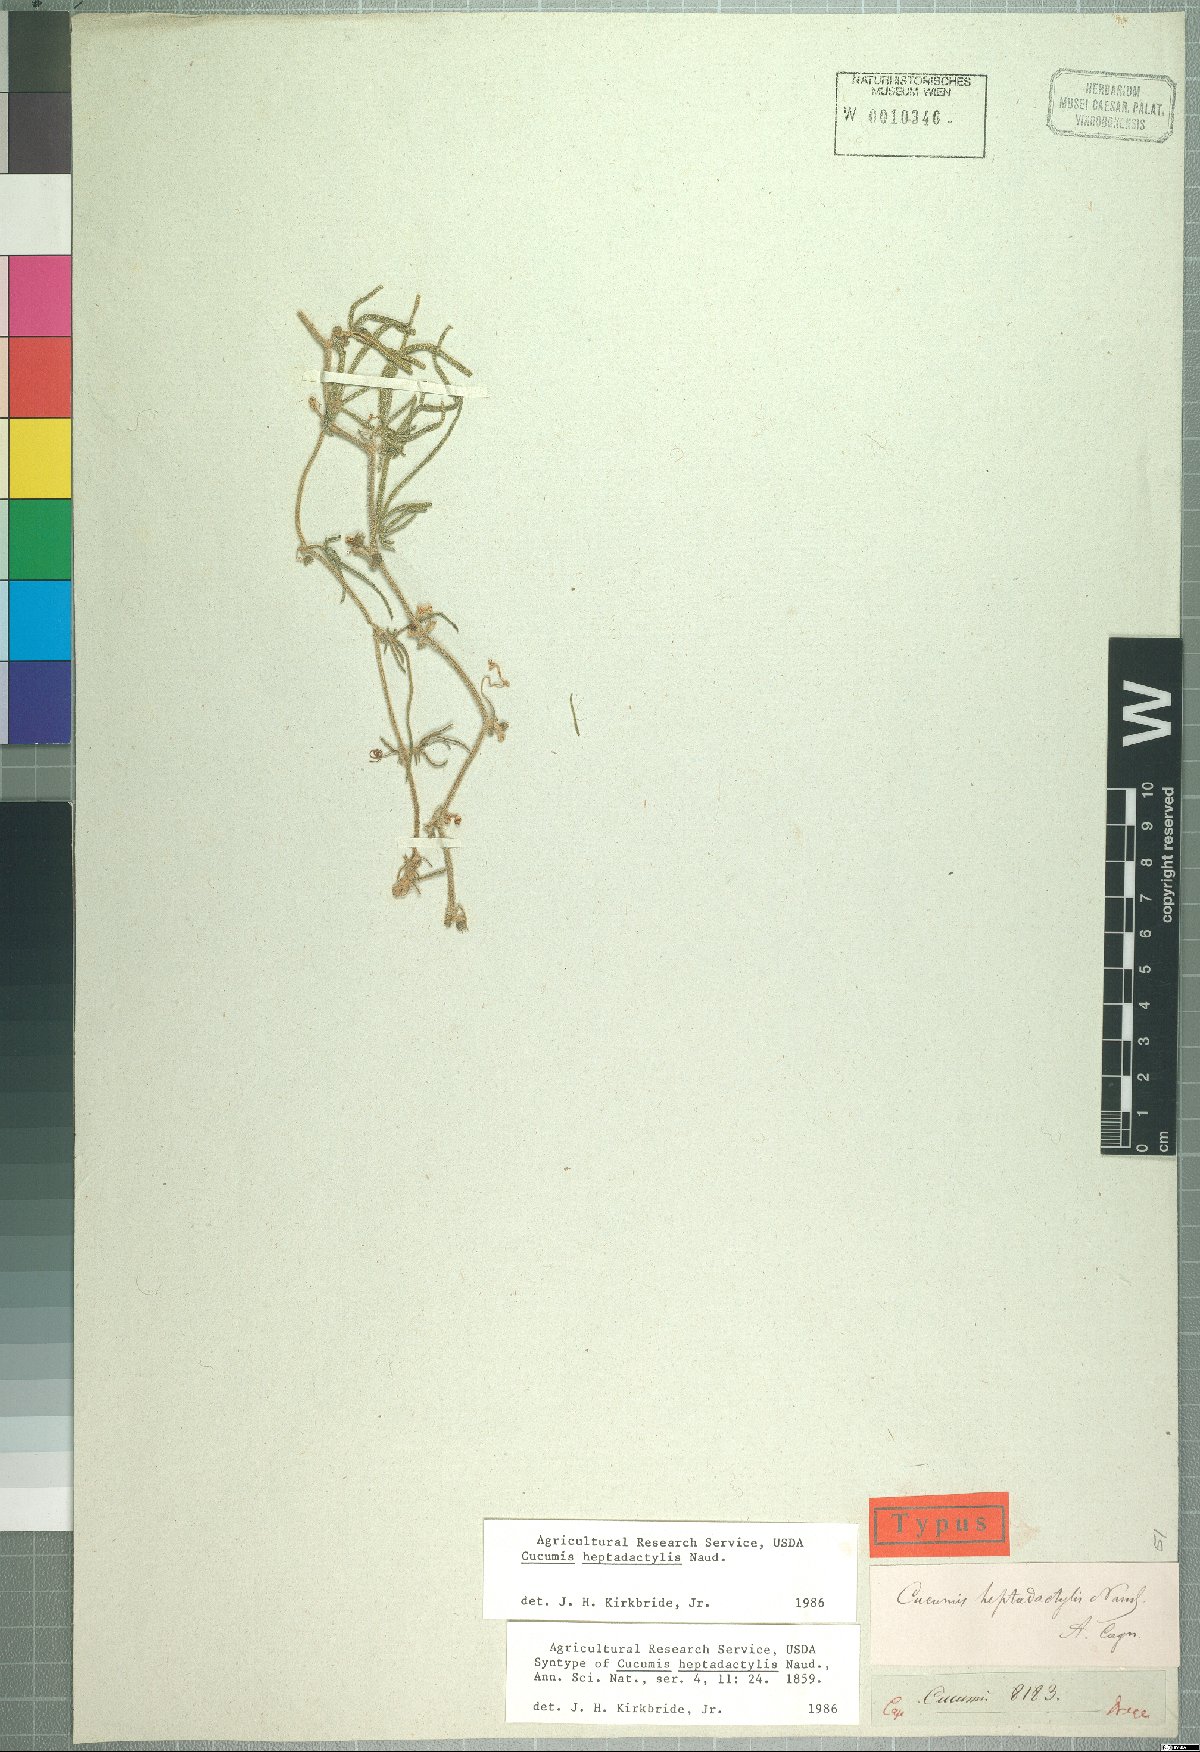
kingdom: Plantae
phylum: Tracheophyta
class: Magnoliopsida
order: Cucurbitales
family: Cucurbitaceae
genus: Cucumis
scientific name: Cucumis heptadactylus
